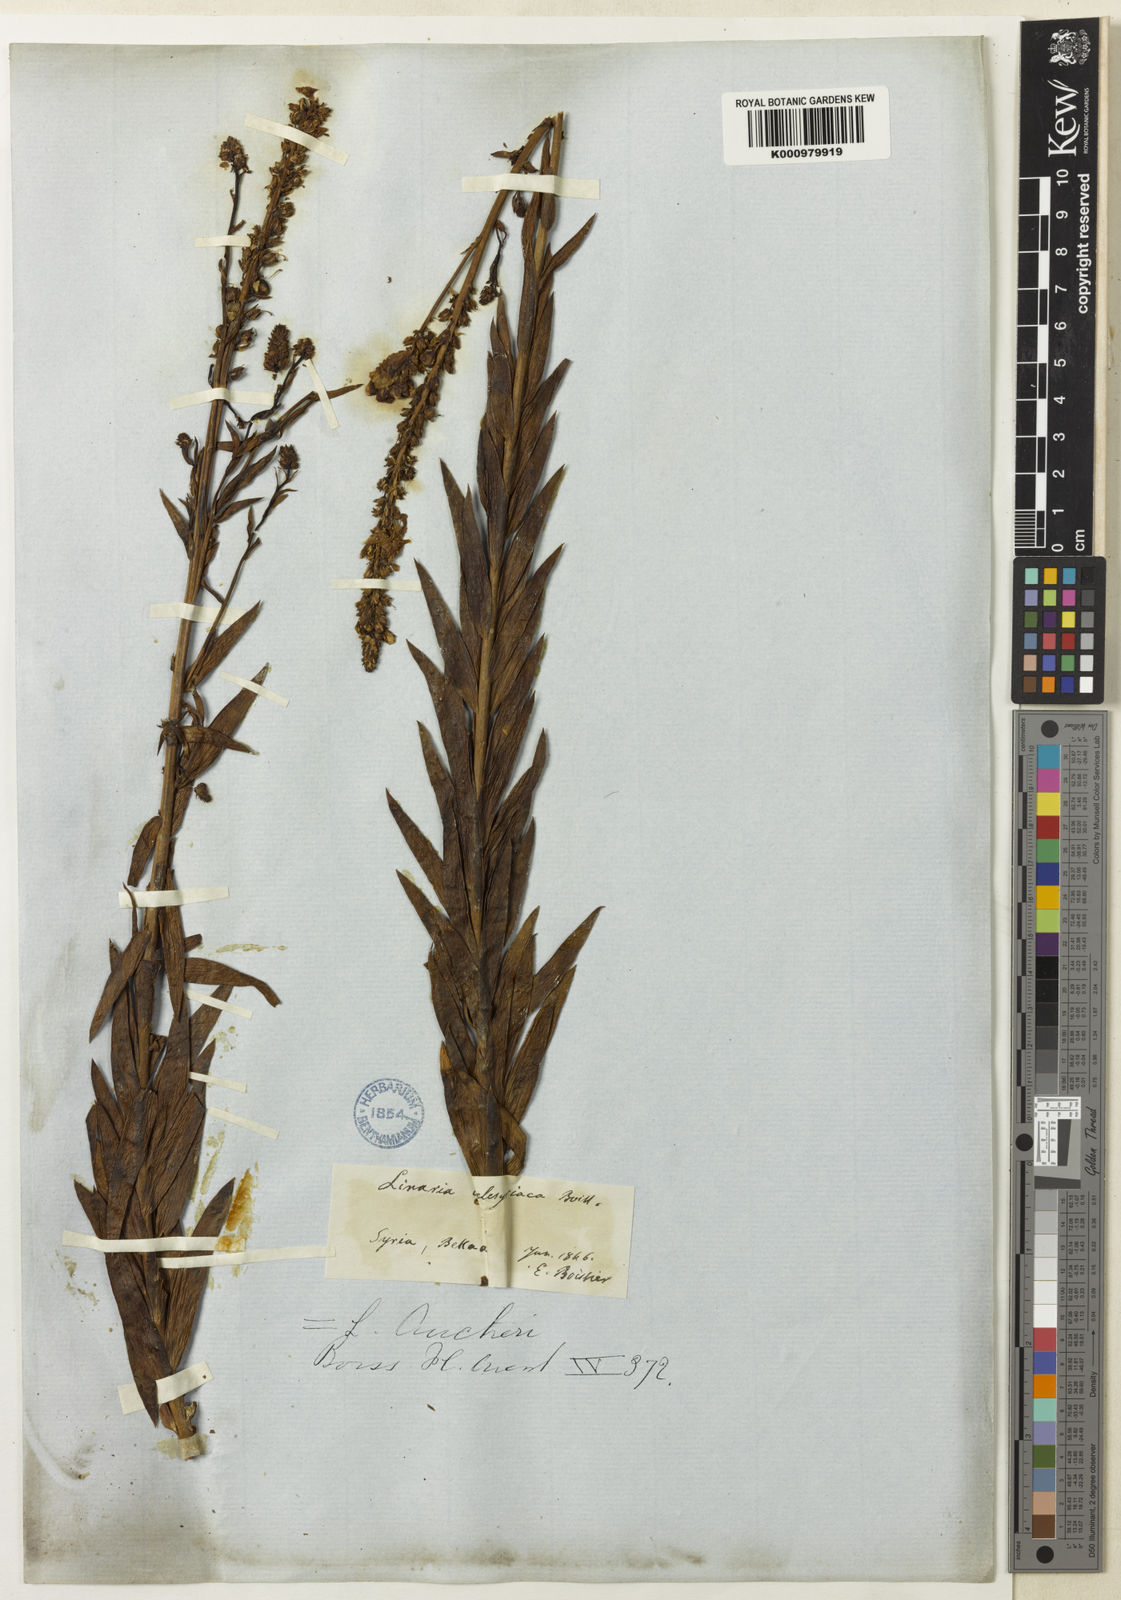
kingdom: Plantae
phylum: Tracheophyta
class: Magnoliopsida
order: Lamiales
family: Plantaginaceae
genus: Linaria
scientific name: Linaria kurdica
